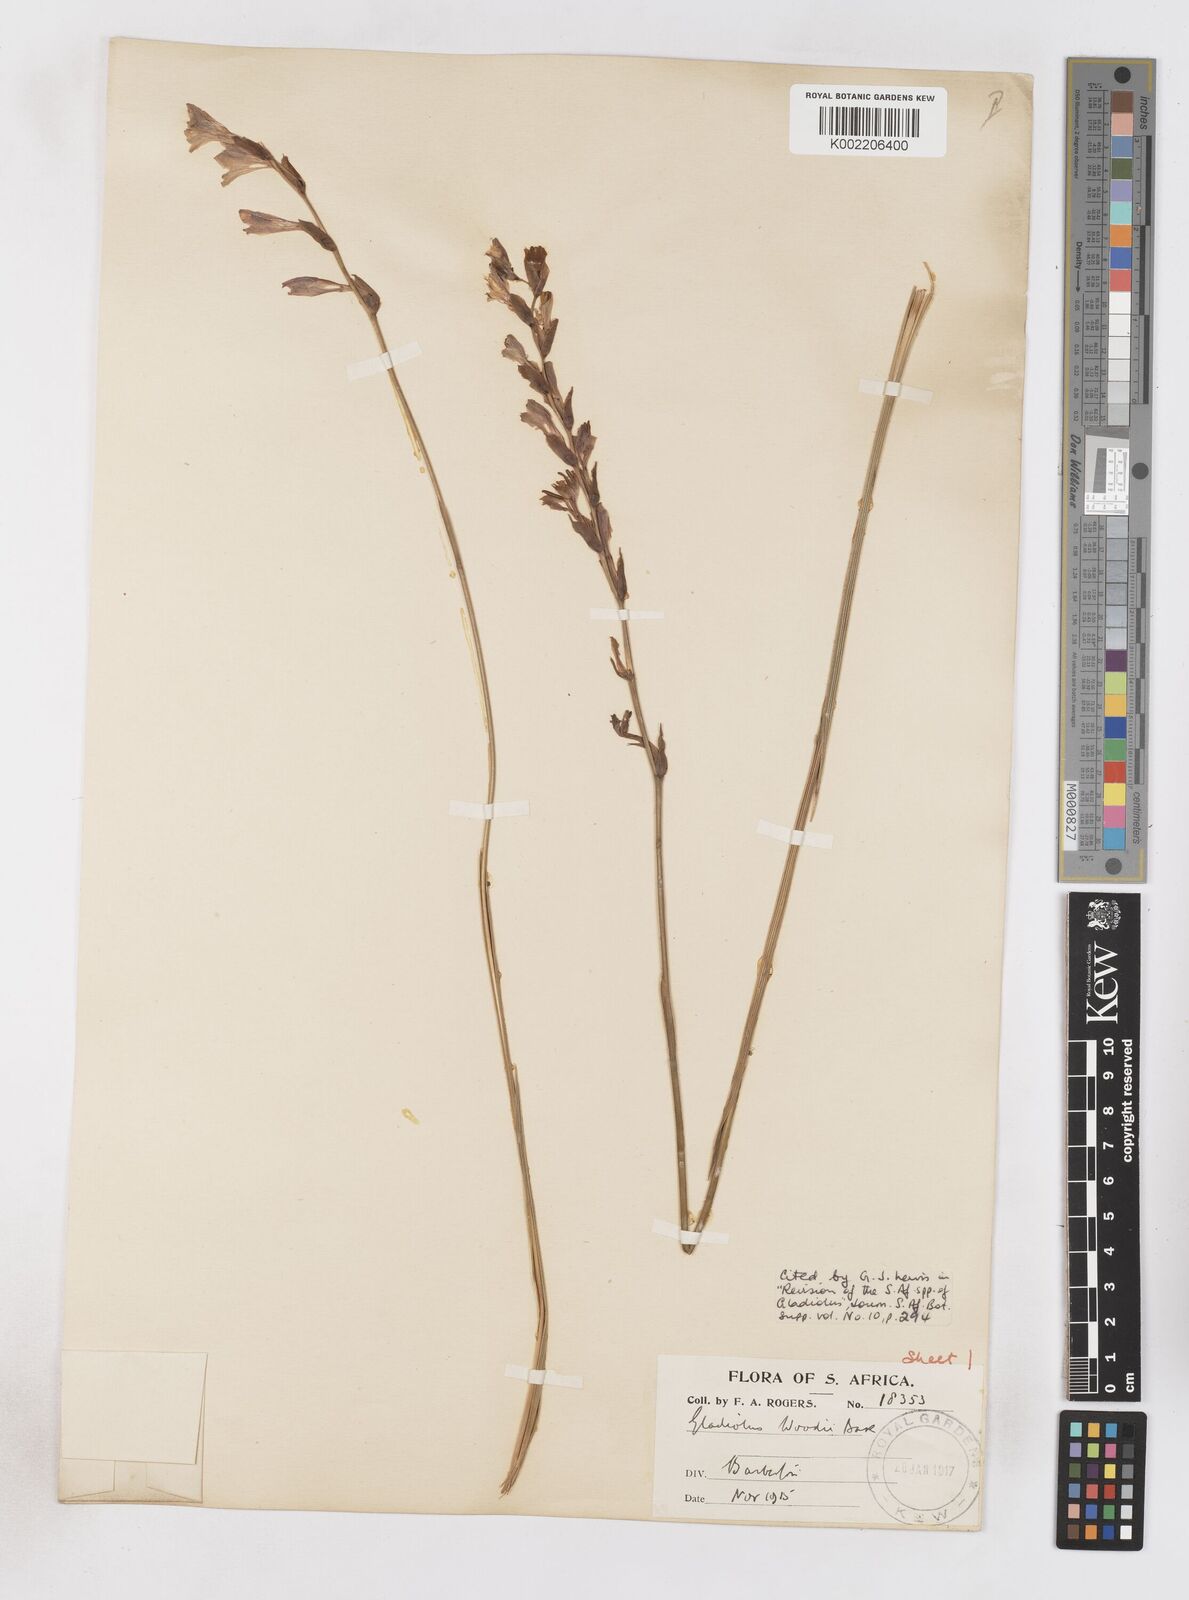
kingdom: Plantae
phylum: Tracheophyta
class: Liliopsida
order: Asparagales
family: Iridaceae
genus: Gladiolus
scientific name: Gladiolus woodii
